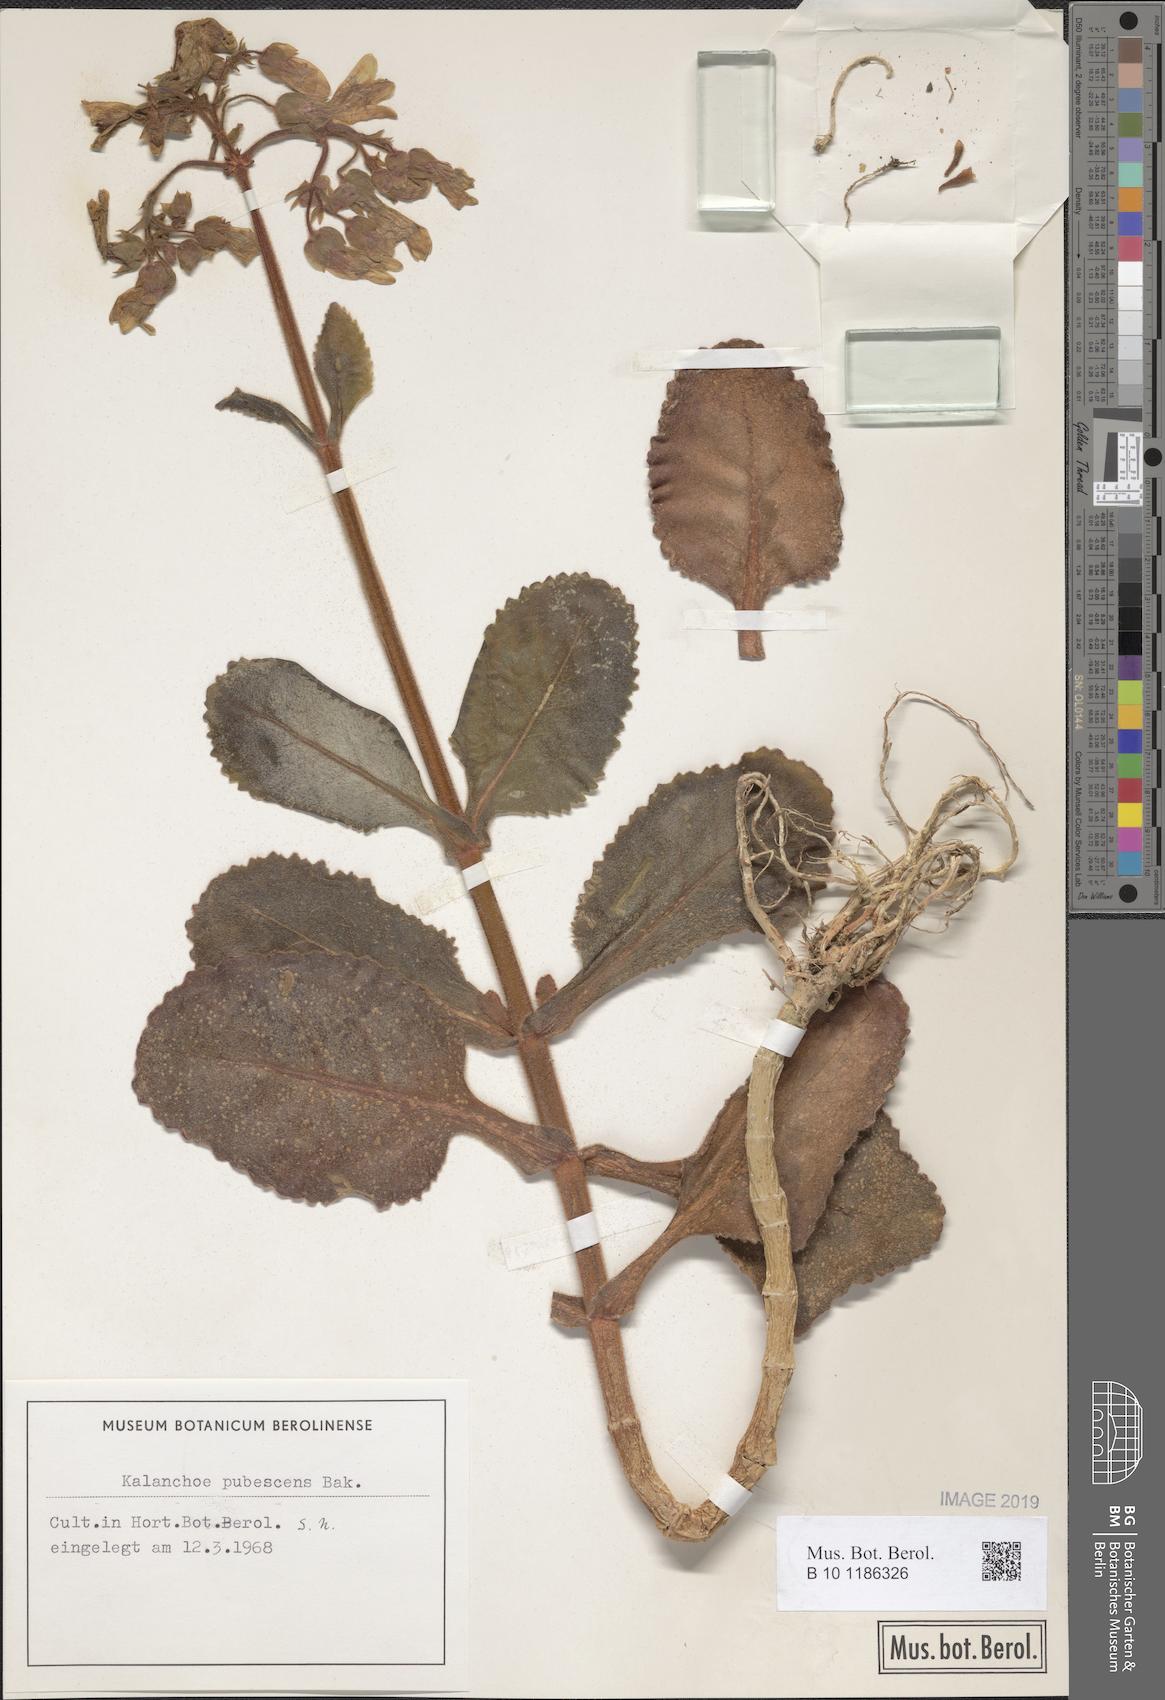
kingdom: Plantae
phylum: Tracheophyta
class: Magnoliopsida
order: Saxifragales
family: Crassulaceae
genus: Kalanchoe
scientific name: Kalanchoe pubescens
